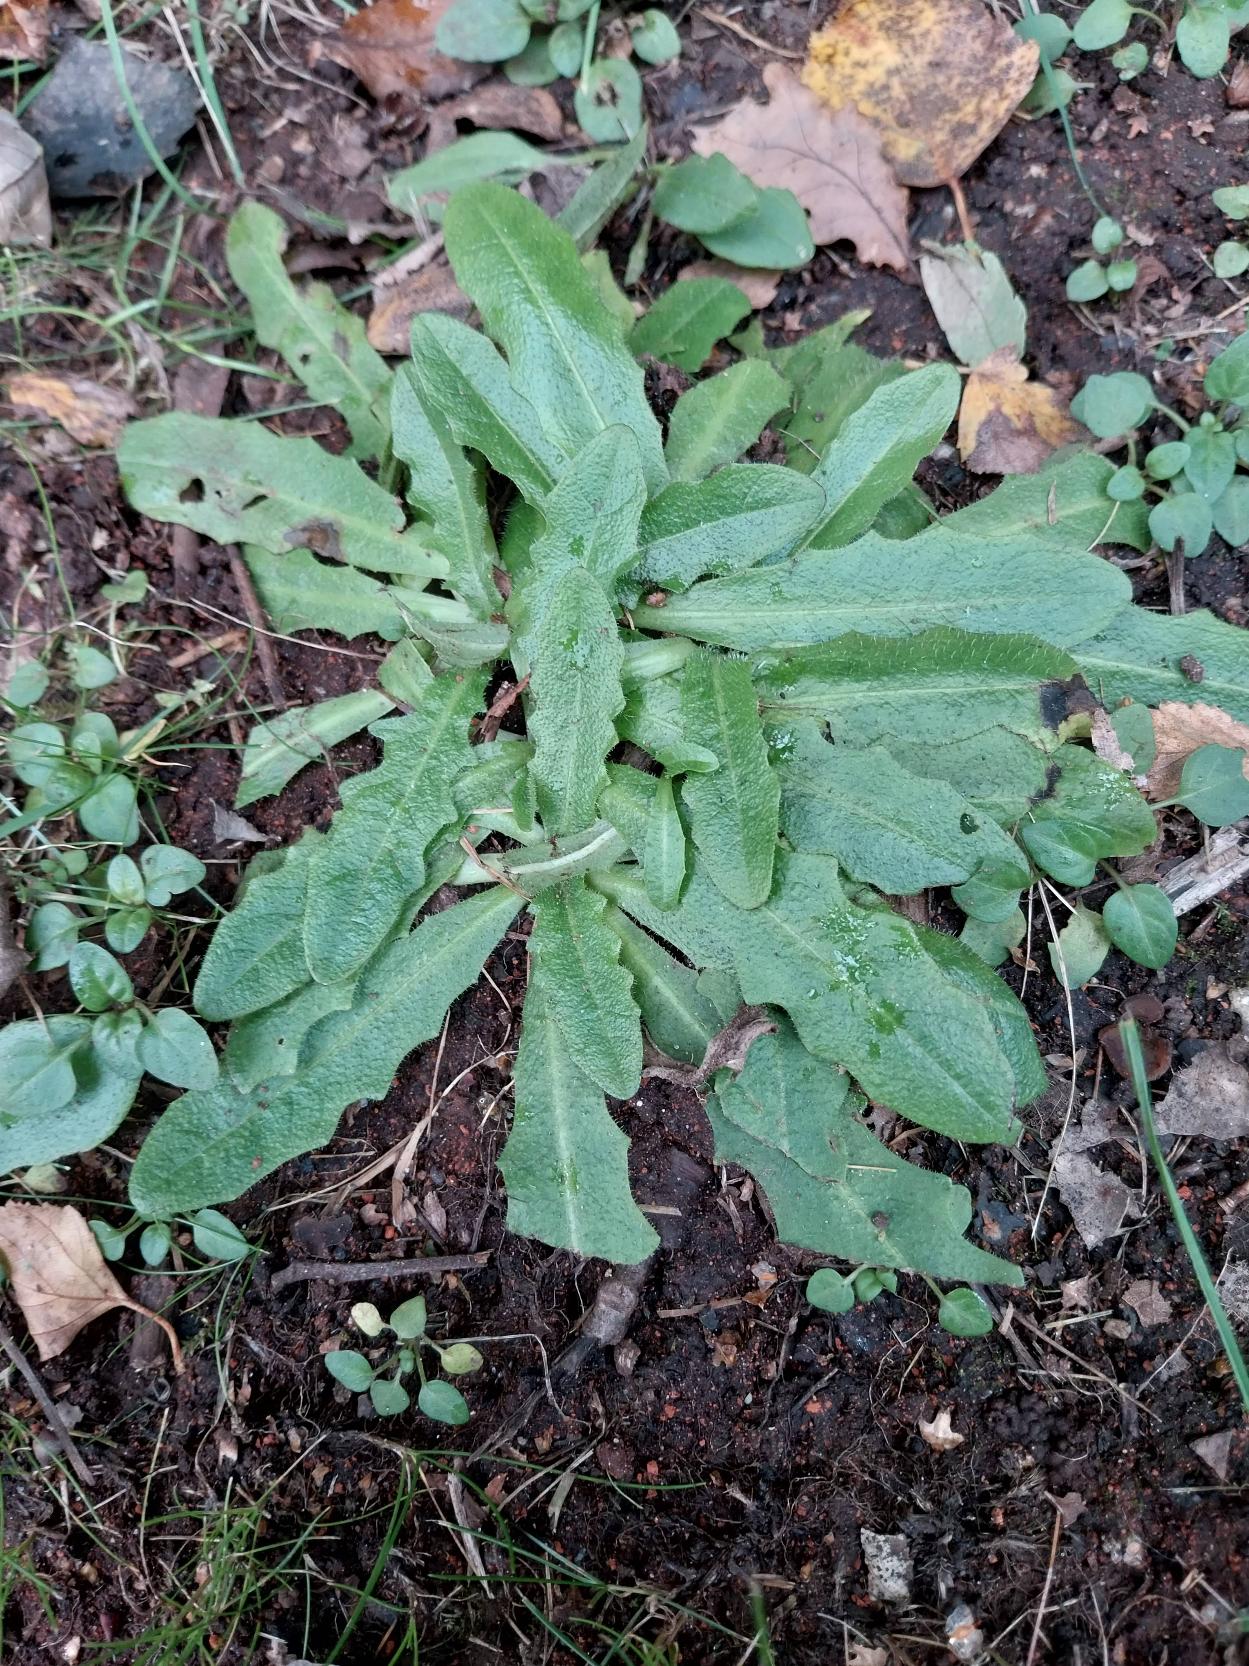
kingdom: Plantae
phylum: Tracheophyta
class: Magnoliopsida
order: Asterales
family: Asteraceae
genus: Hypochaeris
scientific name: Hypochaeris radicata
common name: Almindelig kongepen
